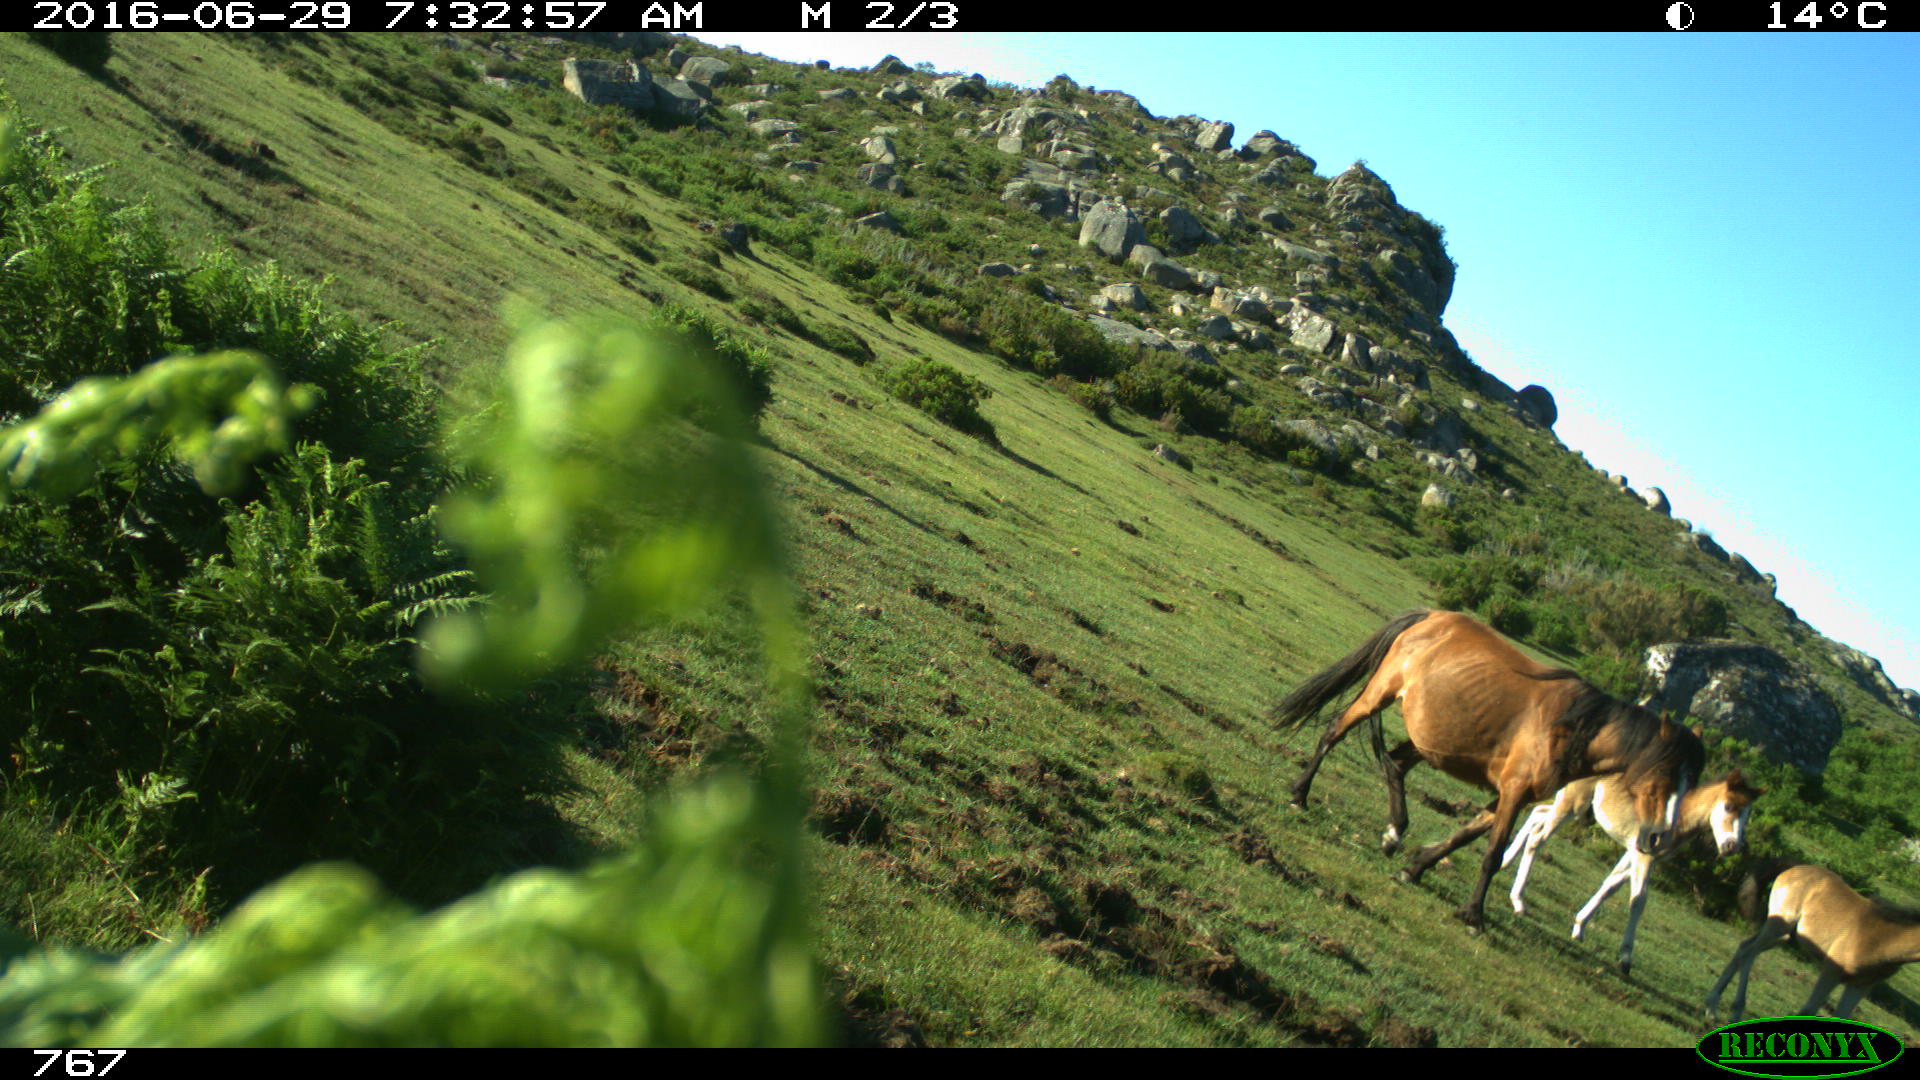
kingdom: Animalia
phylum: Chordata
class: Mammalia
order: Perissodactyla
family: Equidae
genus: Equus
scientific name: Equus caballus
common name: Horse
